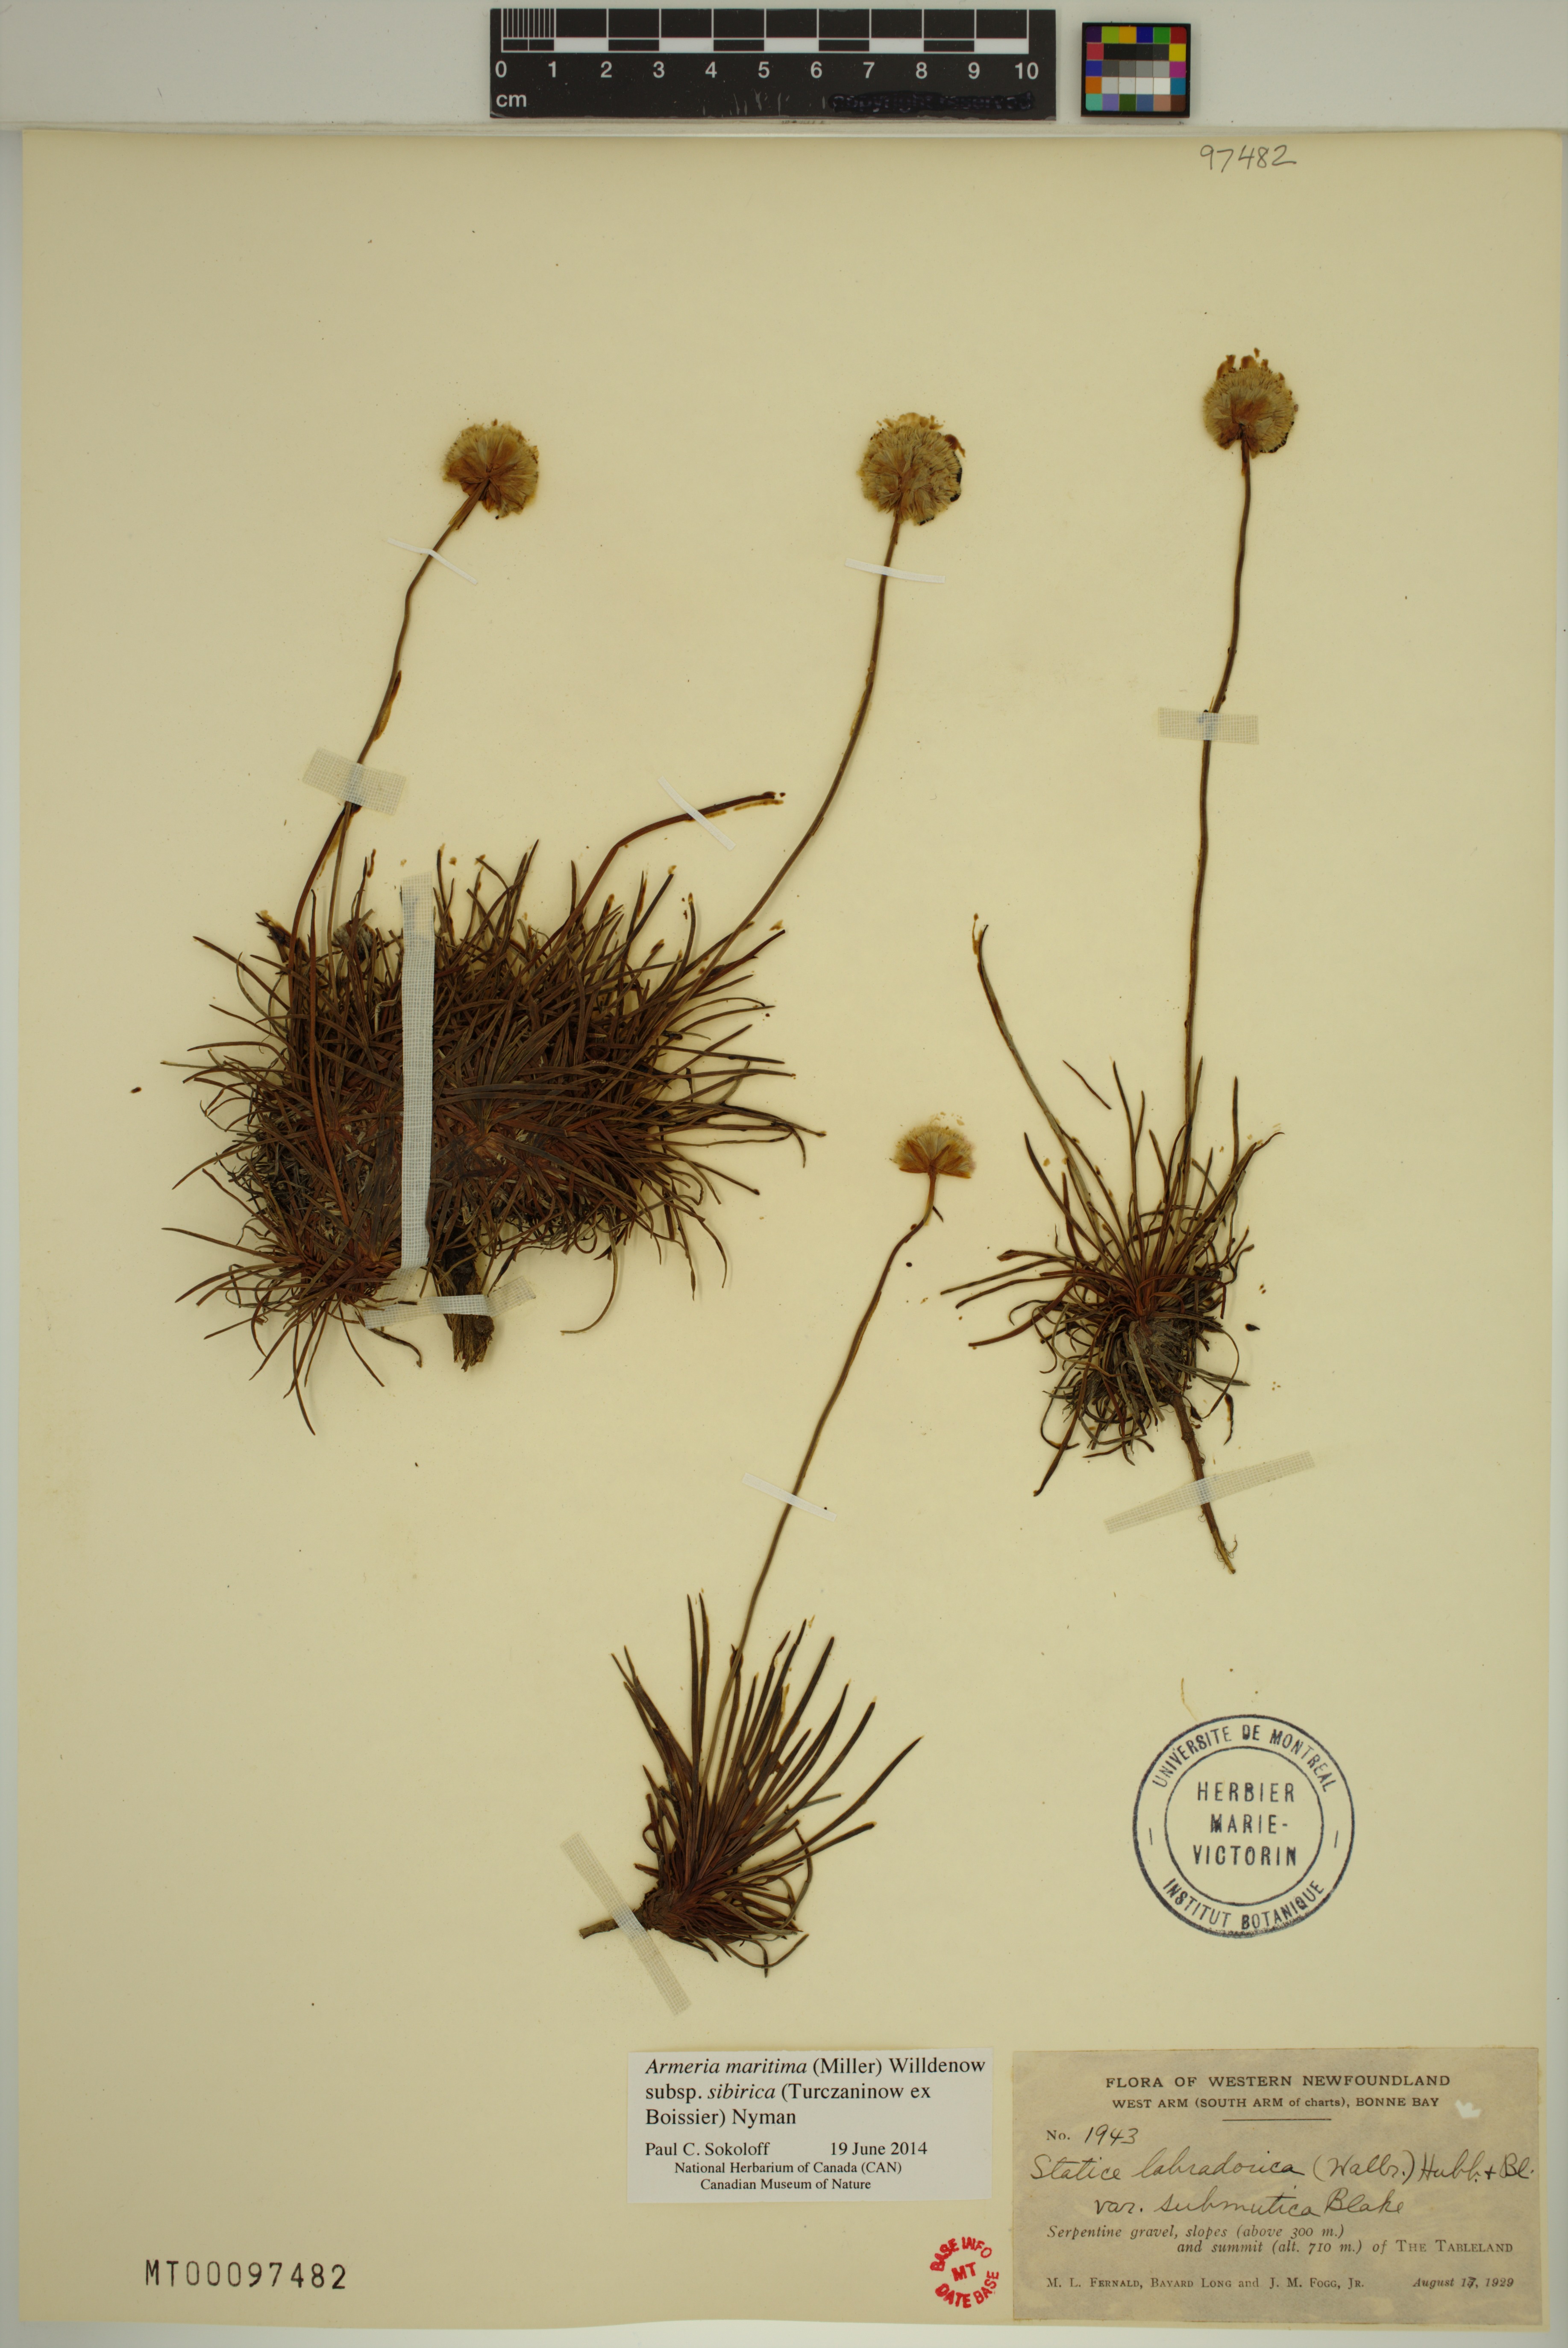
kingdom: Plantae
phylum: Tracheophyta
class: Magnoliopsida
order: Caryophyllales
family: Plumbaginaceae
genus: Armeria
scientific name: Armeria maritima
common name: Thrift
